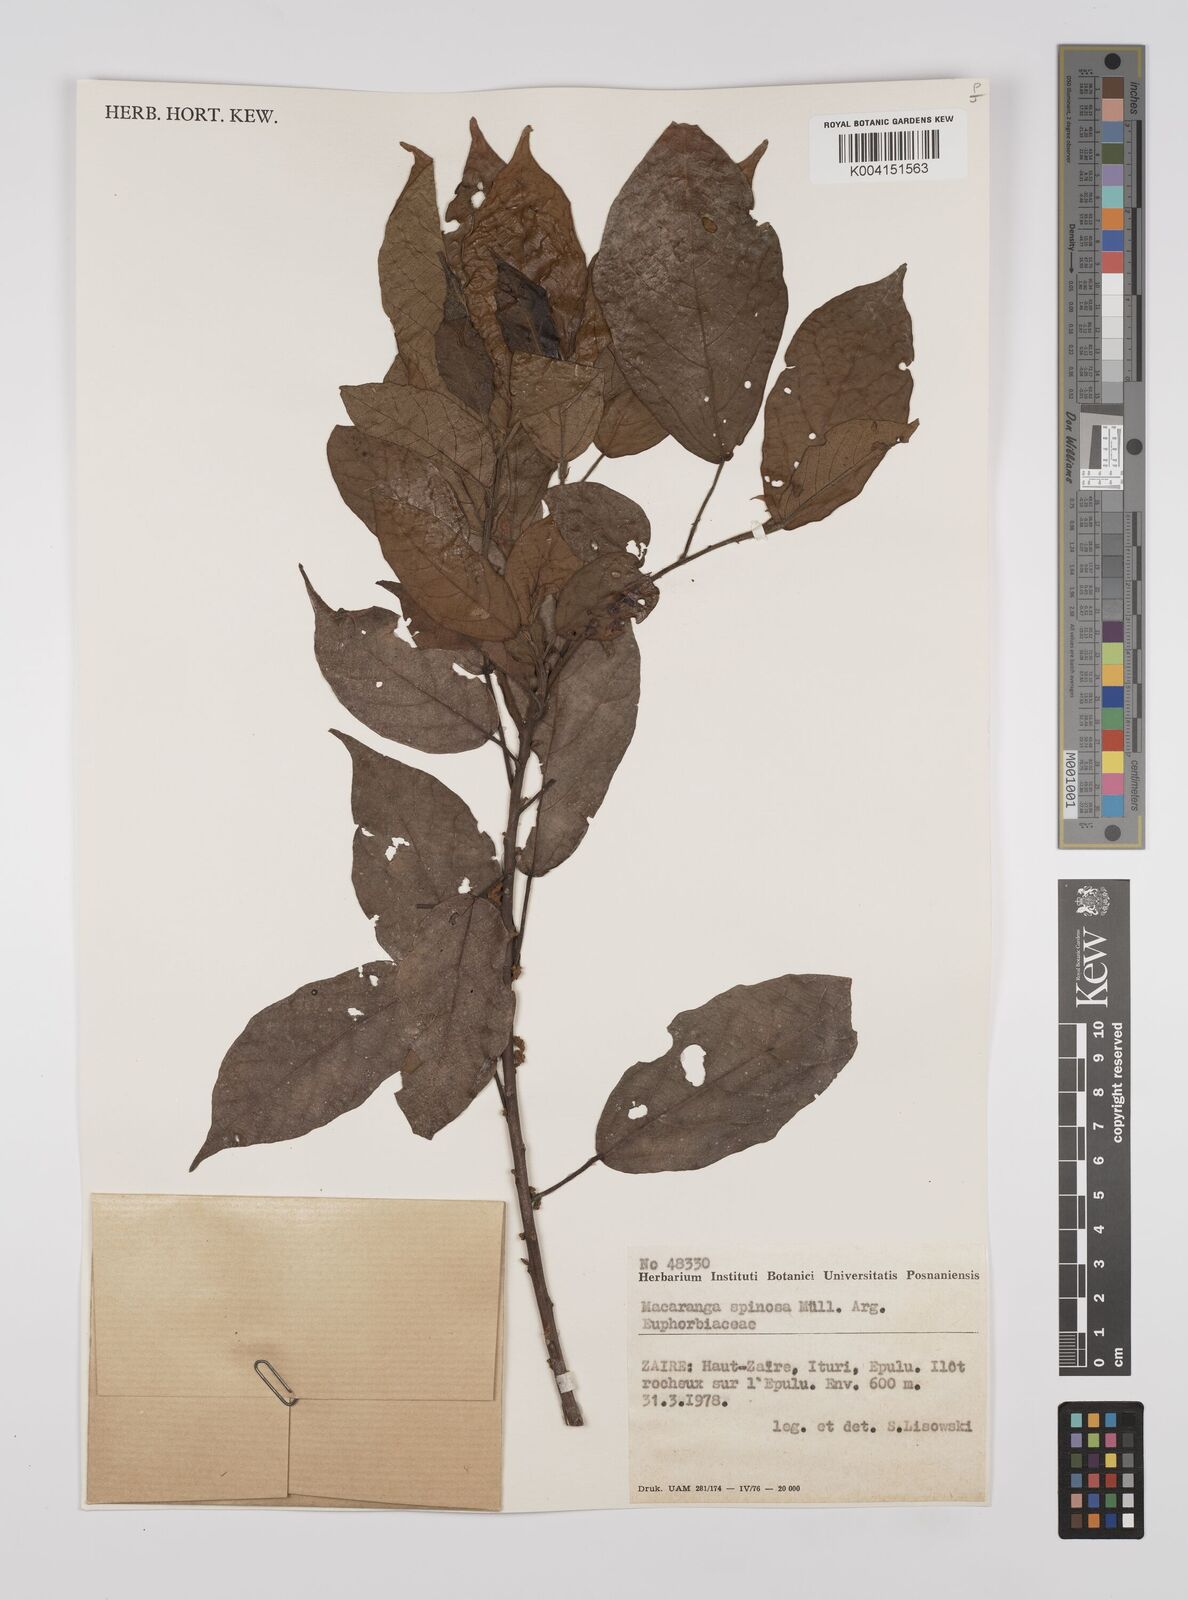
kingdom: Plantae
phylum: Tracheophyta
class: Magnoliopsida
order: Malpighiales
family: Euphorbiaceae
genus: Macaranga
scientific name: Macaranga spinosa
